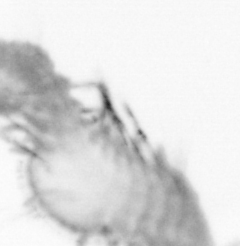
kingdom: Animalia
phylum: Annelida
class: Polychaeta
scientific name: Polychaeta
